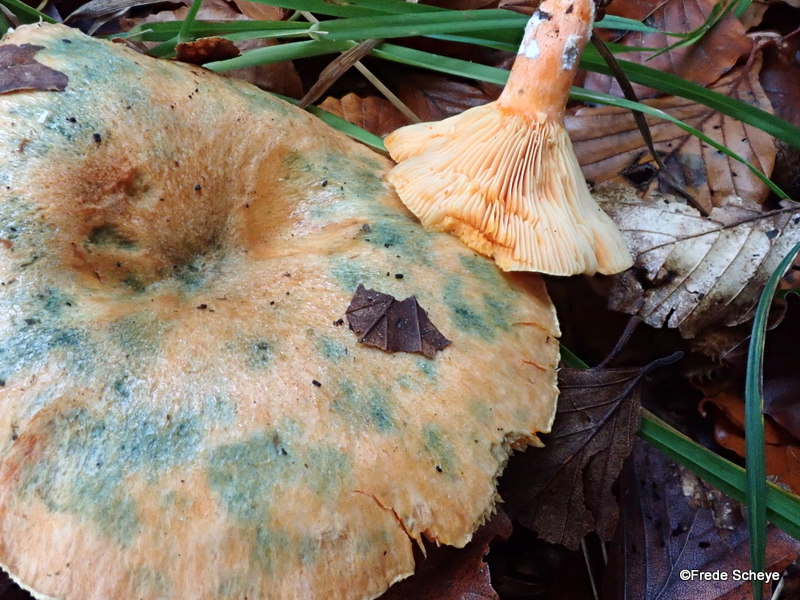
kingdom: Fungi
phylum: Basidiomycota
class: Agaricomycetes
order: Russulales
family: Russulaceae
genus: Lactarius
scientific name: Lactarius deterrimus
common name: gran-mælkehat
